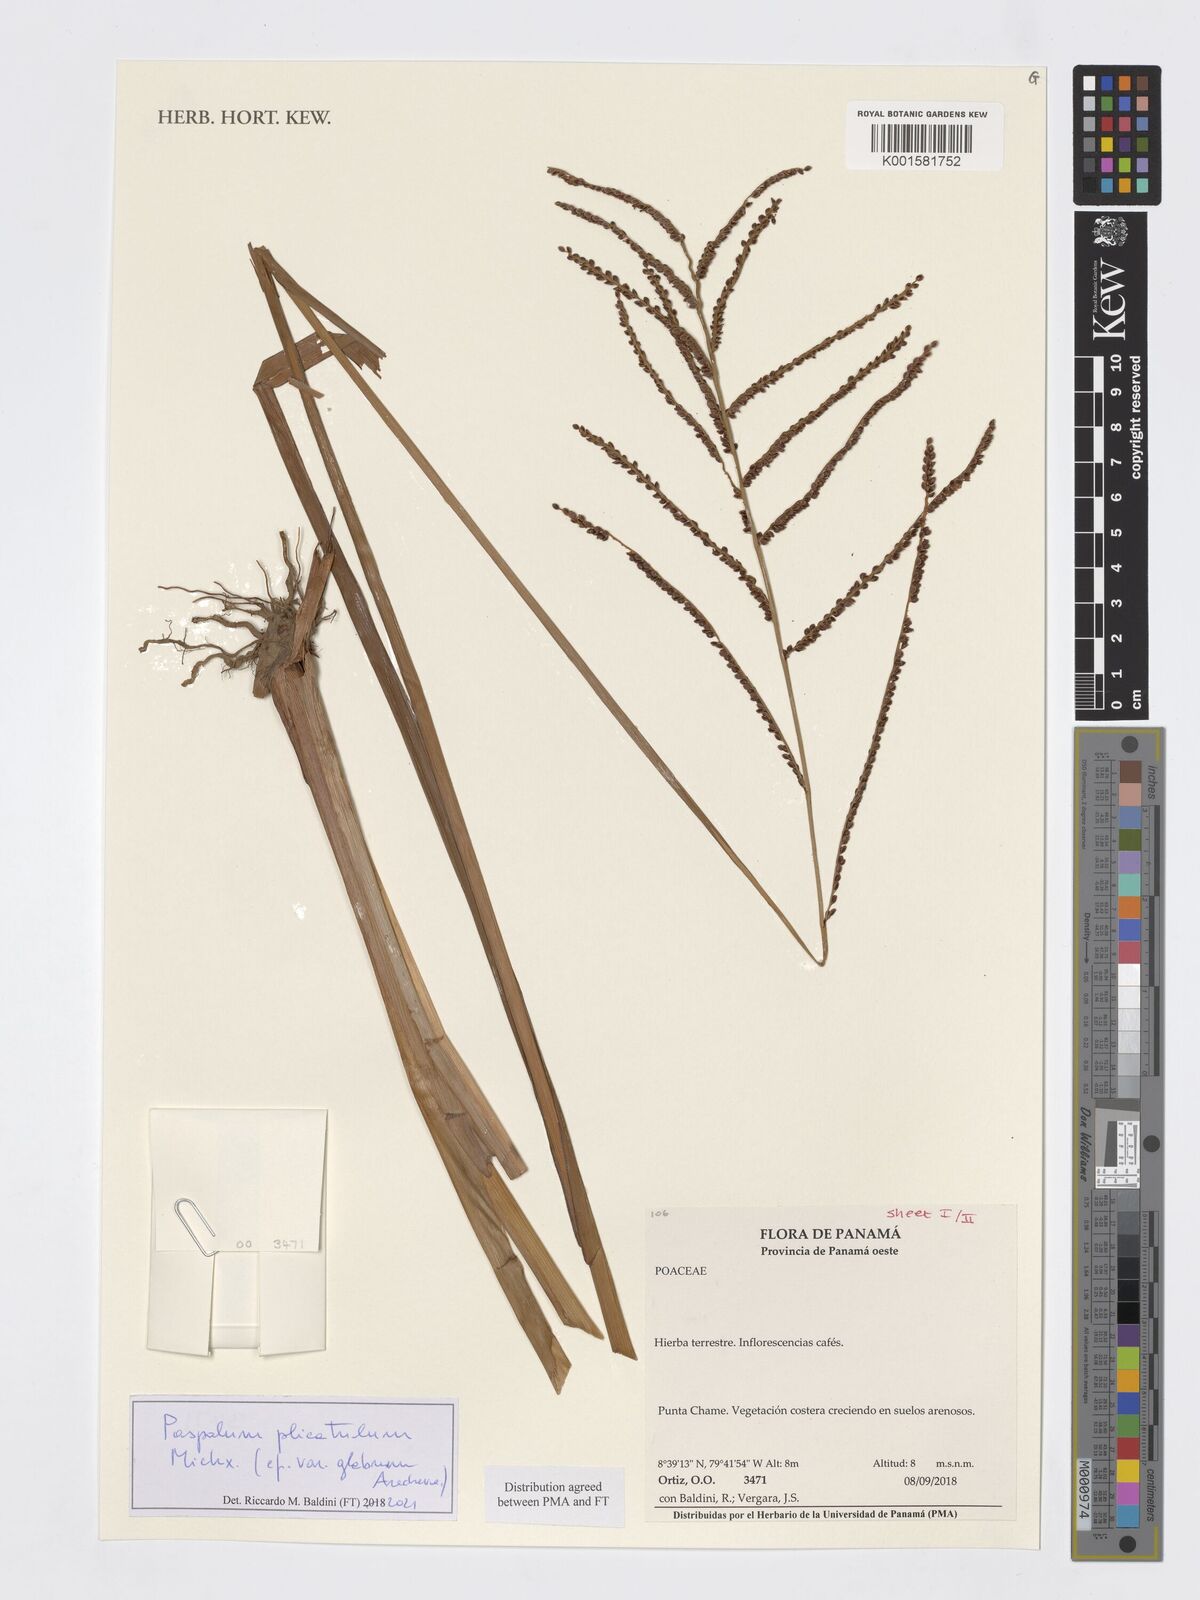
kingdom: Plantae
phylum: Tracheophyta
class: Liliopsida
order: Poales
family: Poaceae
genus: Paspalum
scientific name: Paspalum plicatulum
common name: Top paspalum
